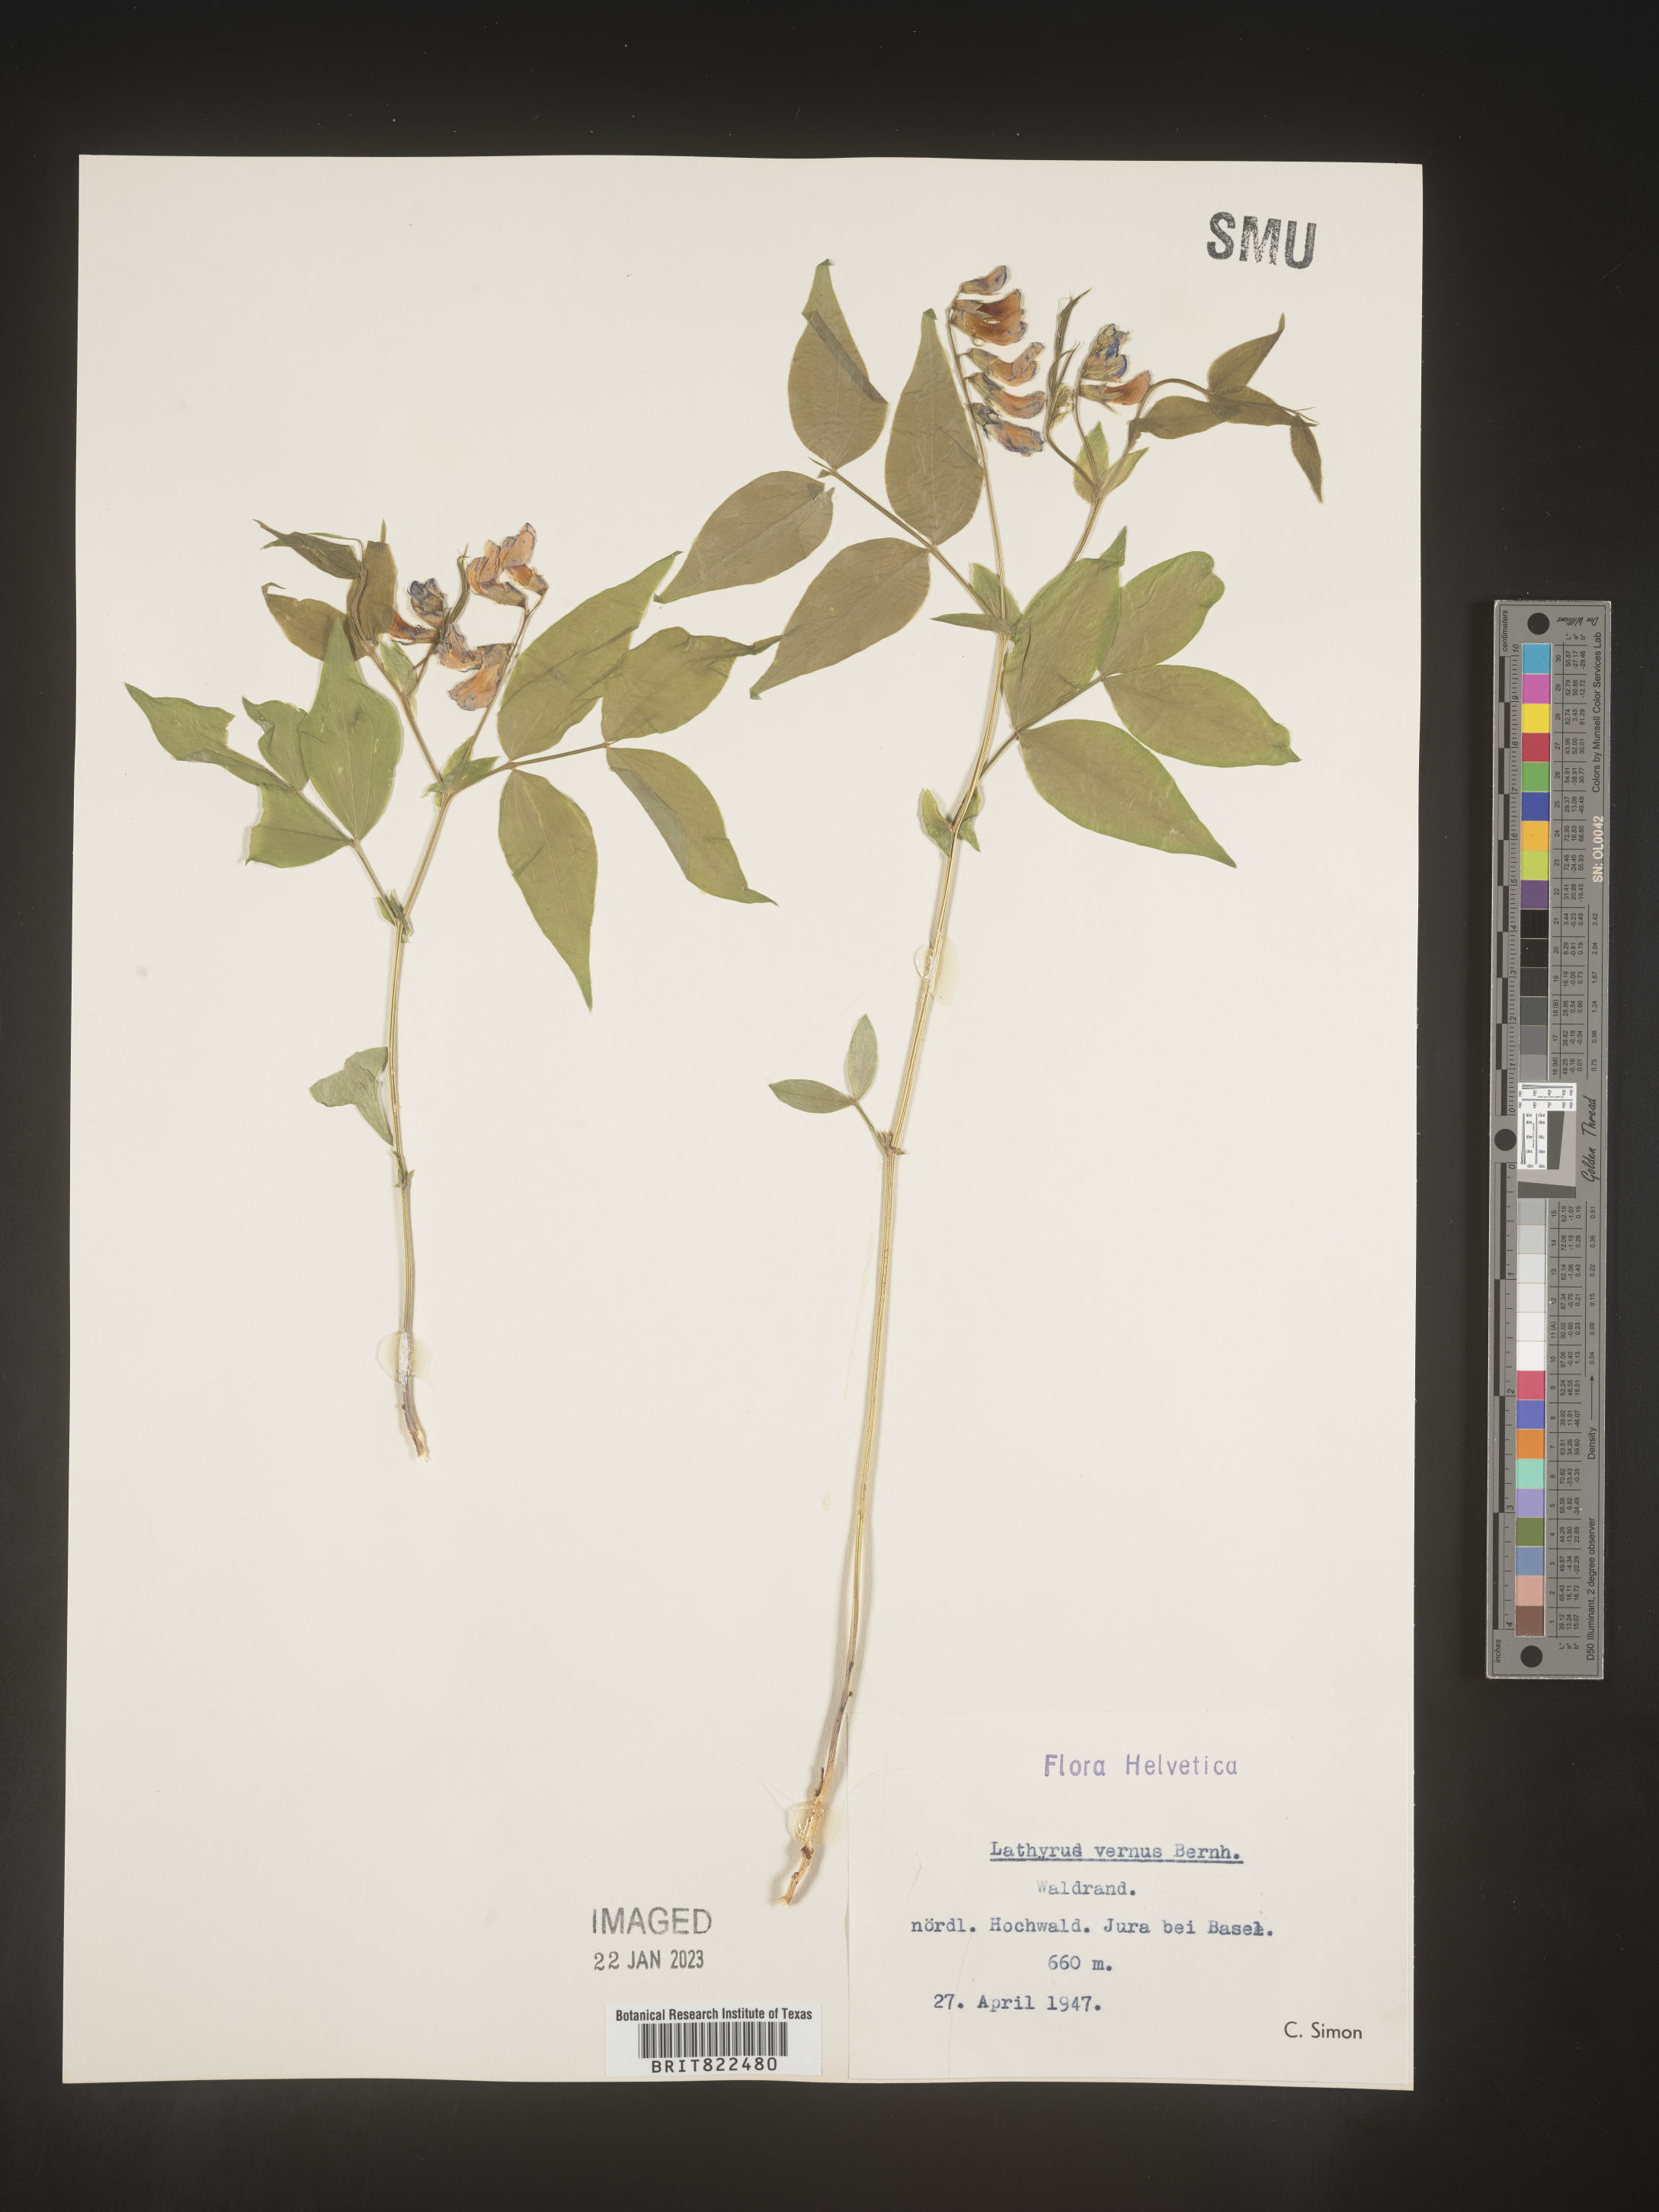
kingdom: Plantae
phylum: Tracheophyta
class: Magnoliopsida
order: Fabales
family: Fabaceae
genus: Lathyrus
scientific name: Lathyrus
